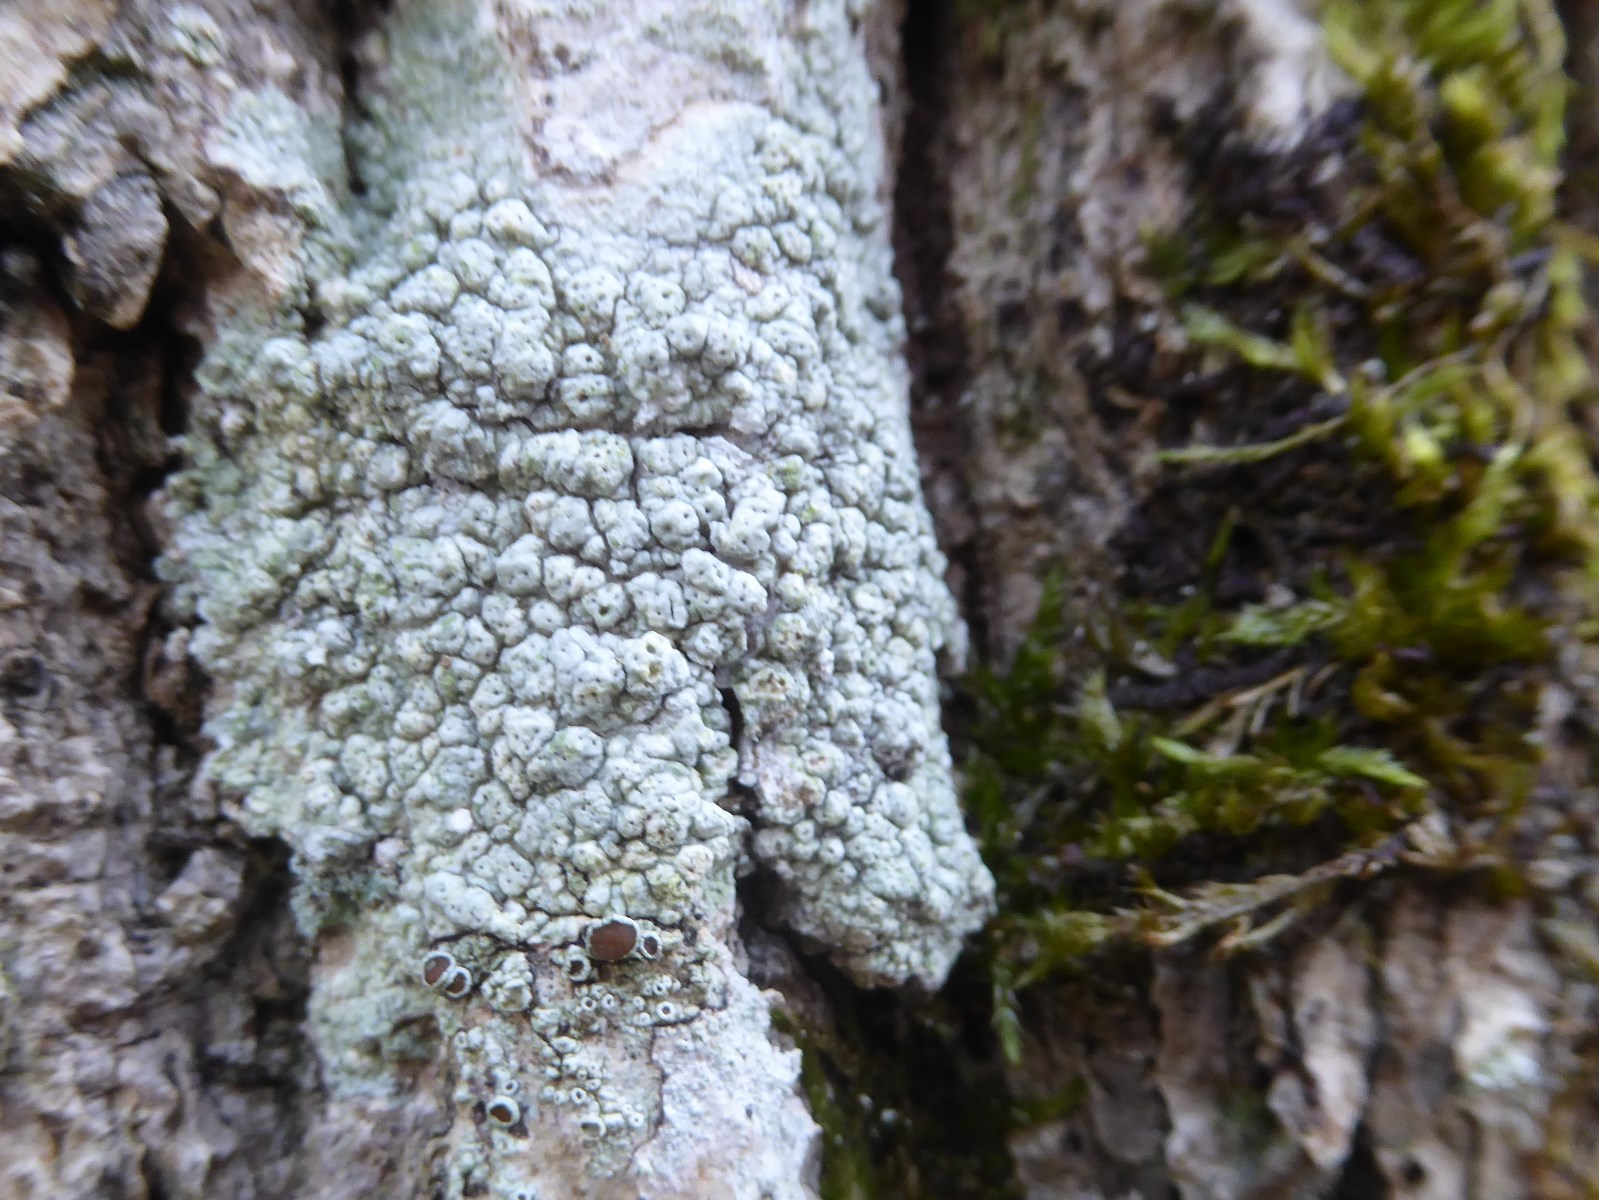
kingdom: Fungi
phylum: Ascomycota
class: Lecanoromycetes
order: Pertusariales
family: Pertusariaceae
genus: Pertusaria
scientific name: Pertusaria pertusa
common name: almindelig prikvortelav
